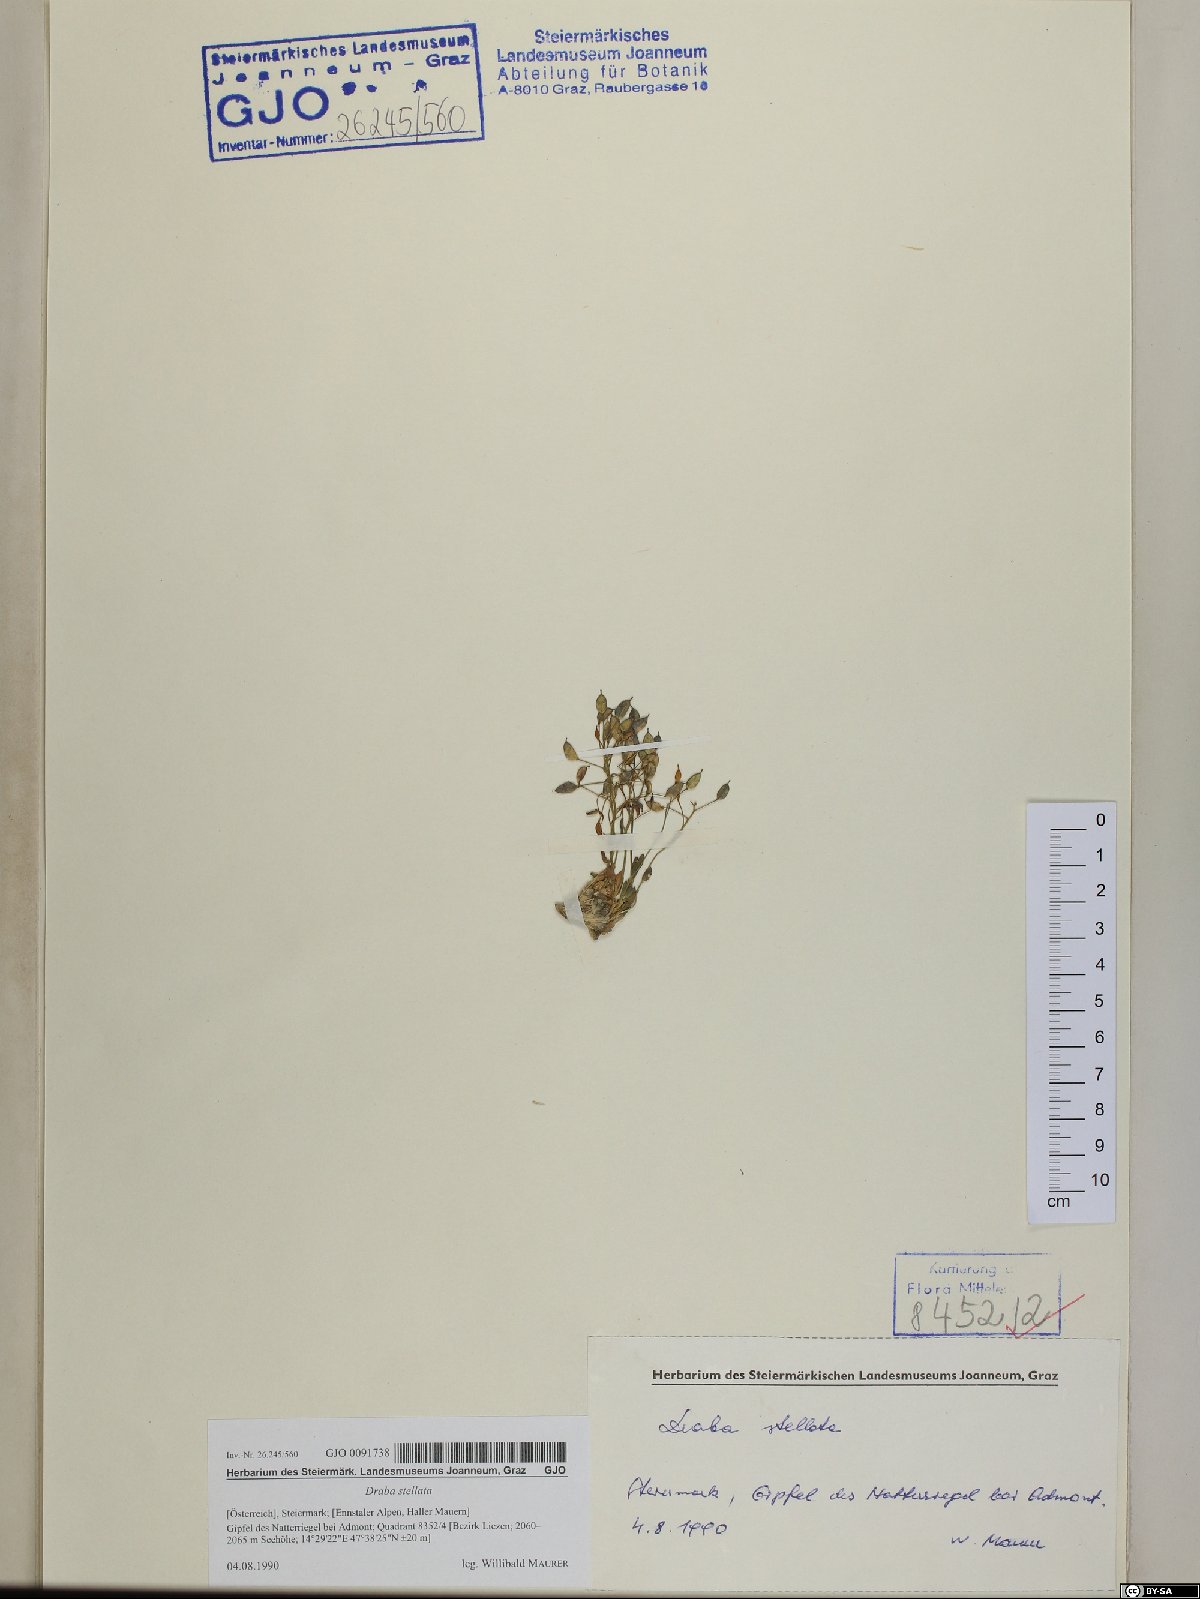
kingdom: Plantae
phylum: Tracheophyta
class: Magnoliopsida
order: Brassicales
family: Brassicaceae
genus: Draba
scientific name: Draba stellata
